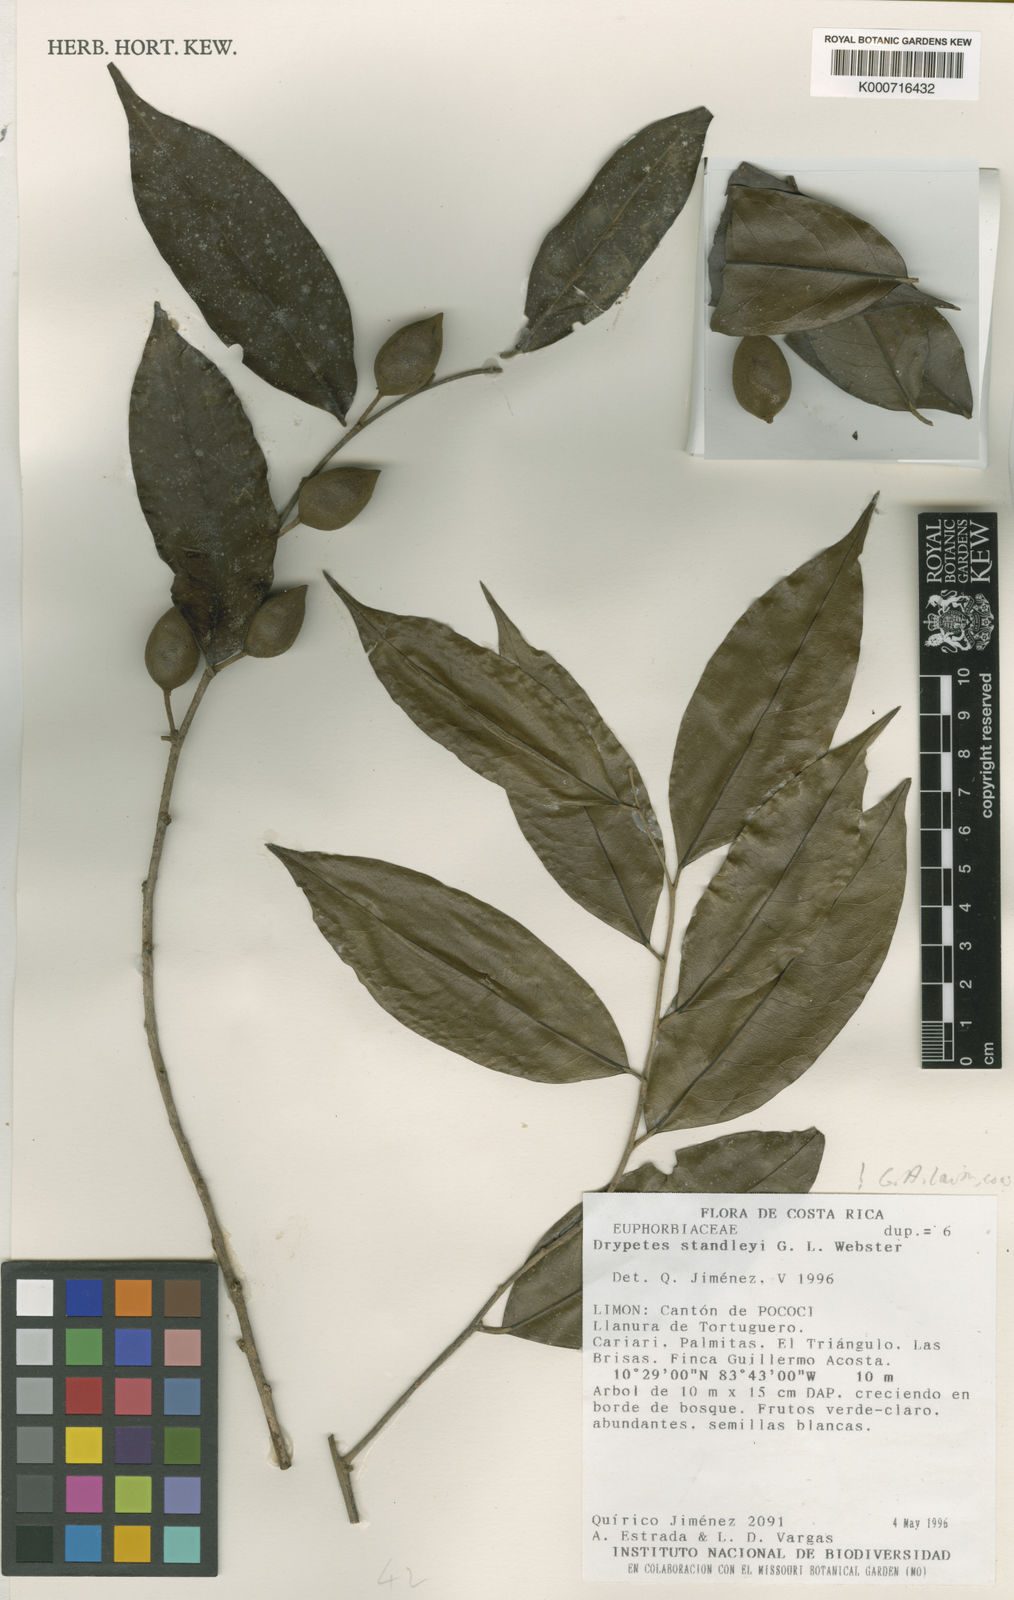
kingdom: Plantae
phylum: Tracheophyta
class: Magnoliopsida
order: Malpighiales
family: Putranjivaceae
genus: Drypetes
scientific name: Drypetes standleyi
